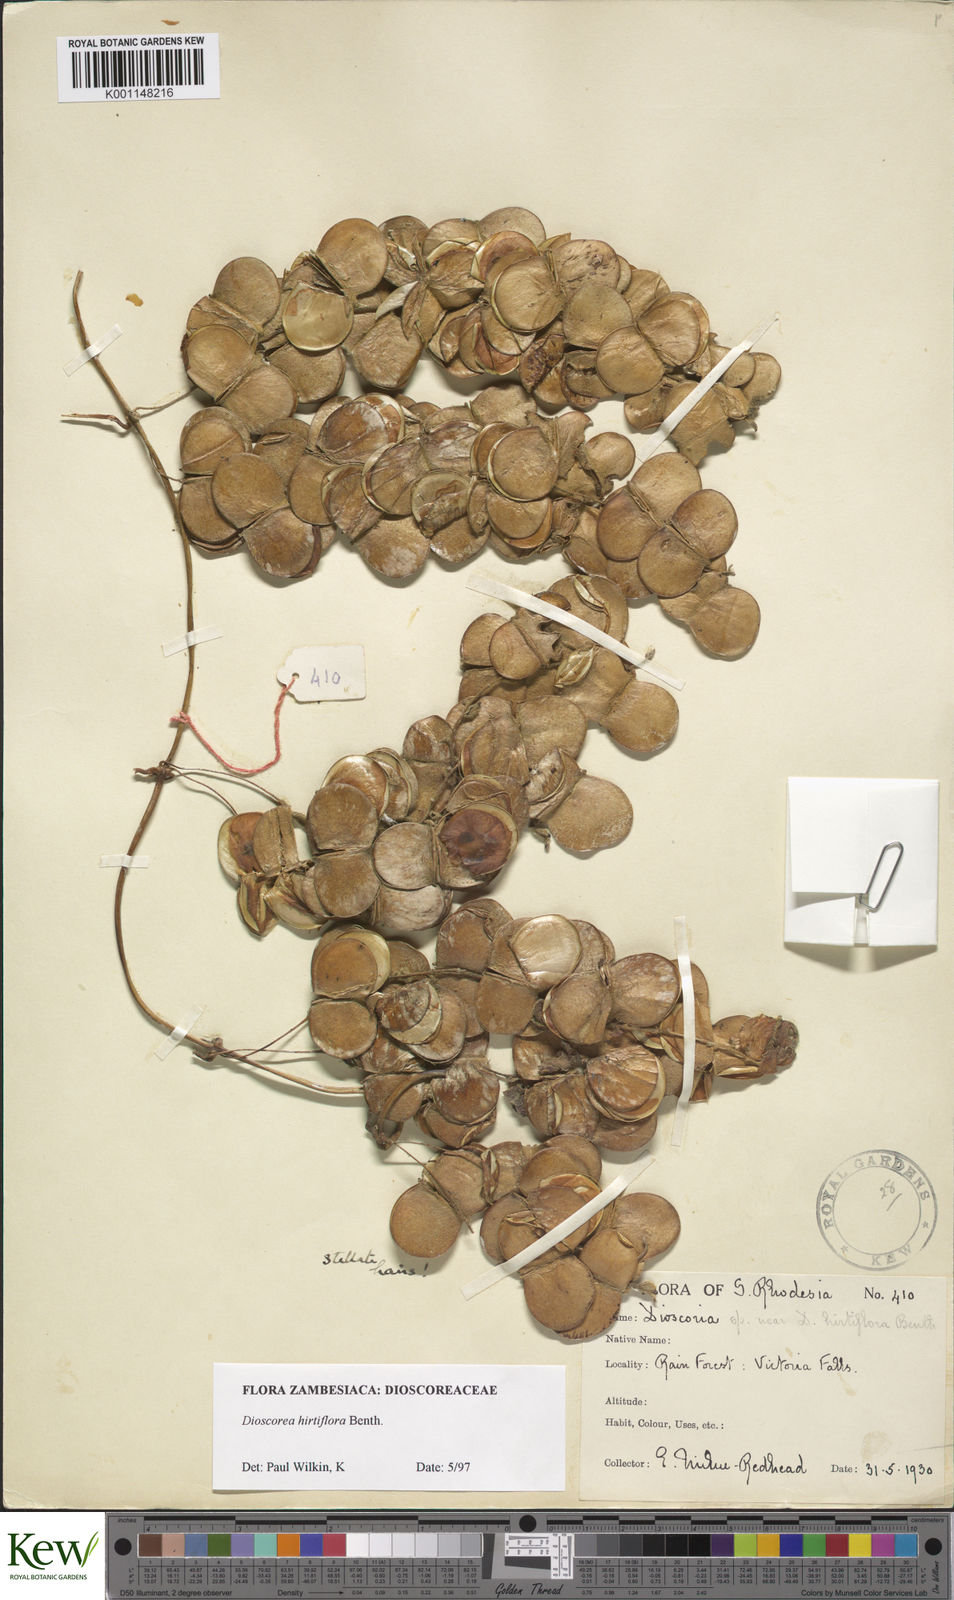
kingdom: Plantae
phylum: Tracheophyta
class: Liliopsida
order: Dioscoreales
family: Dioscoreaceae
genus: Dioscorea
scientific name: Dioscorea hirtiflora
